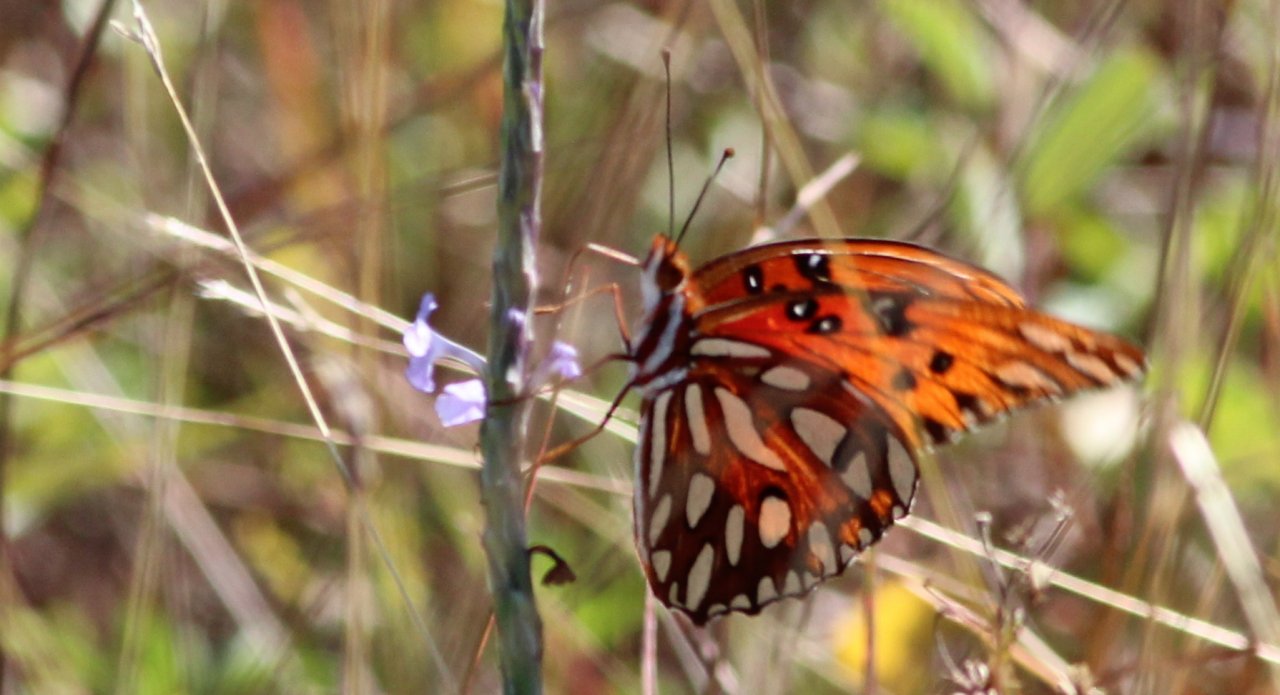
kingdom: Animalia
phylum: Arthropoda
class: Insecta
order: Lepidoptera
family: Nymphalidae
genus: Dione
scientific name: Dione vanillae
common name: Gulf Fritillary
